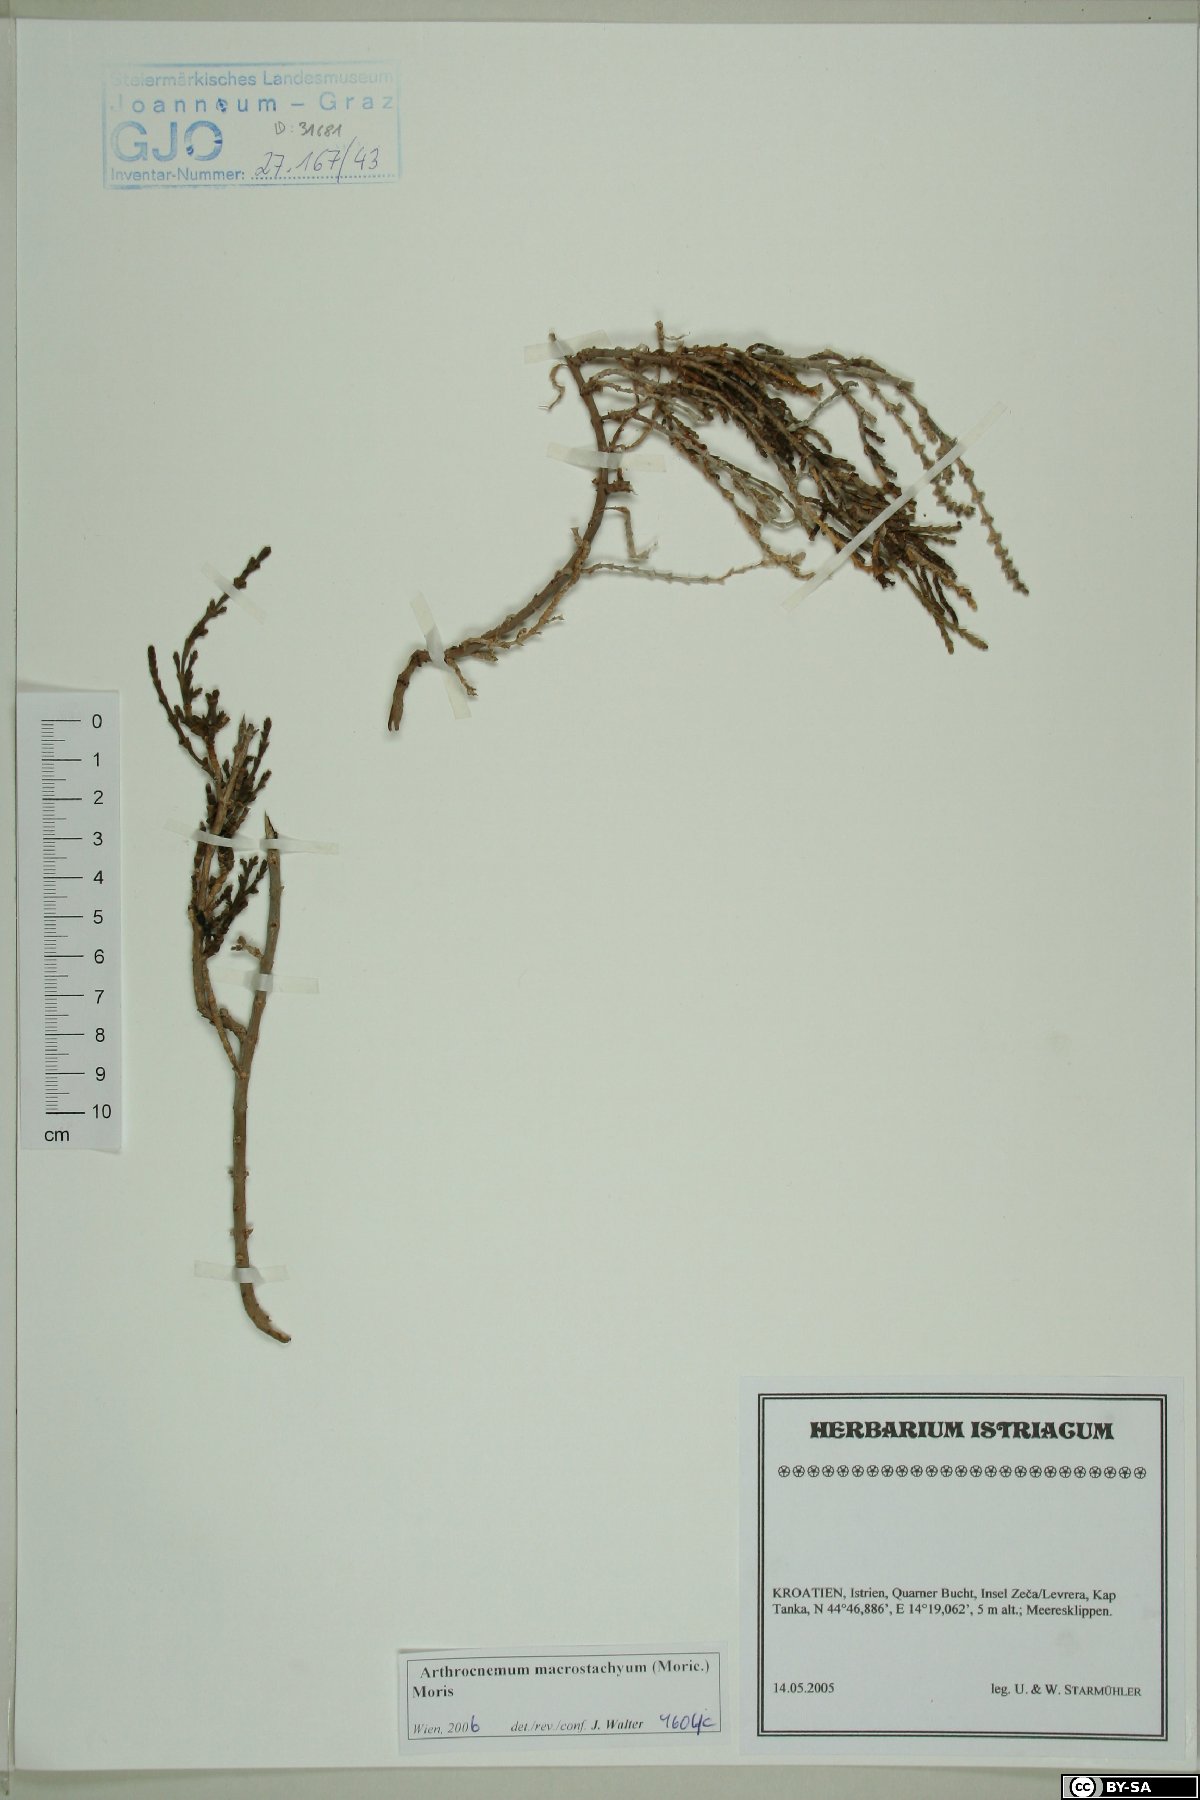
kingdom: Plantae
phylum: Tracheophyta
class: Magnoliopsida
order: Caryophyllales
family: Amaranthaceae
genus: Arthrocaulon
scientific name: Arthrocaulon macrostachyum
